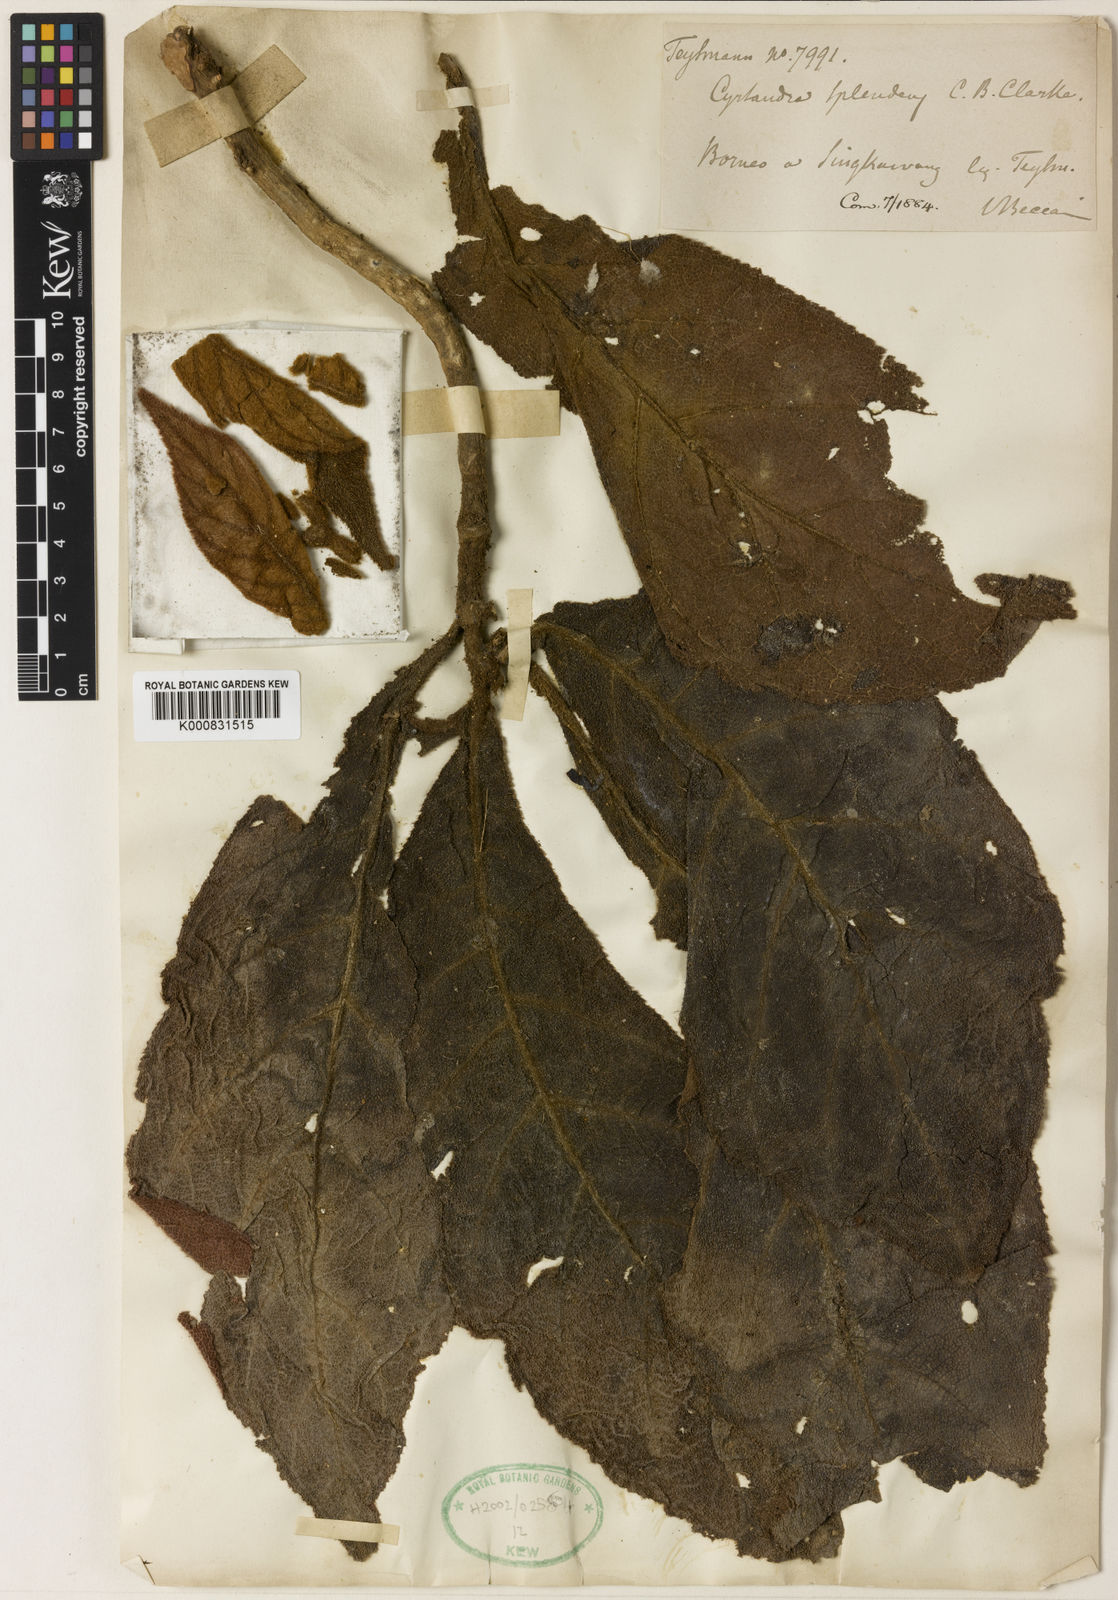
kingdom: Plantae
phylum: Tracheophyta
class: Magnoliopsida
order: Lamiales
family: Gesneriaceae
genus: Cyrtandra
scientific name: Cyrtandra splendens
